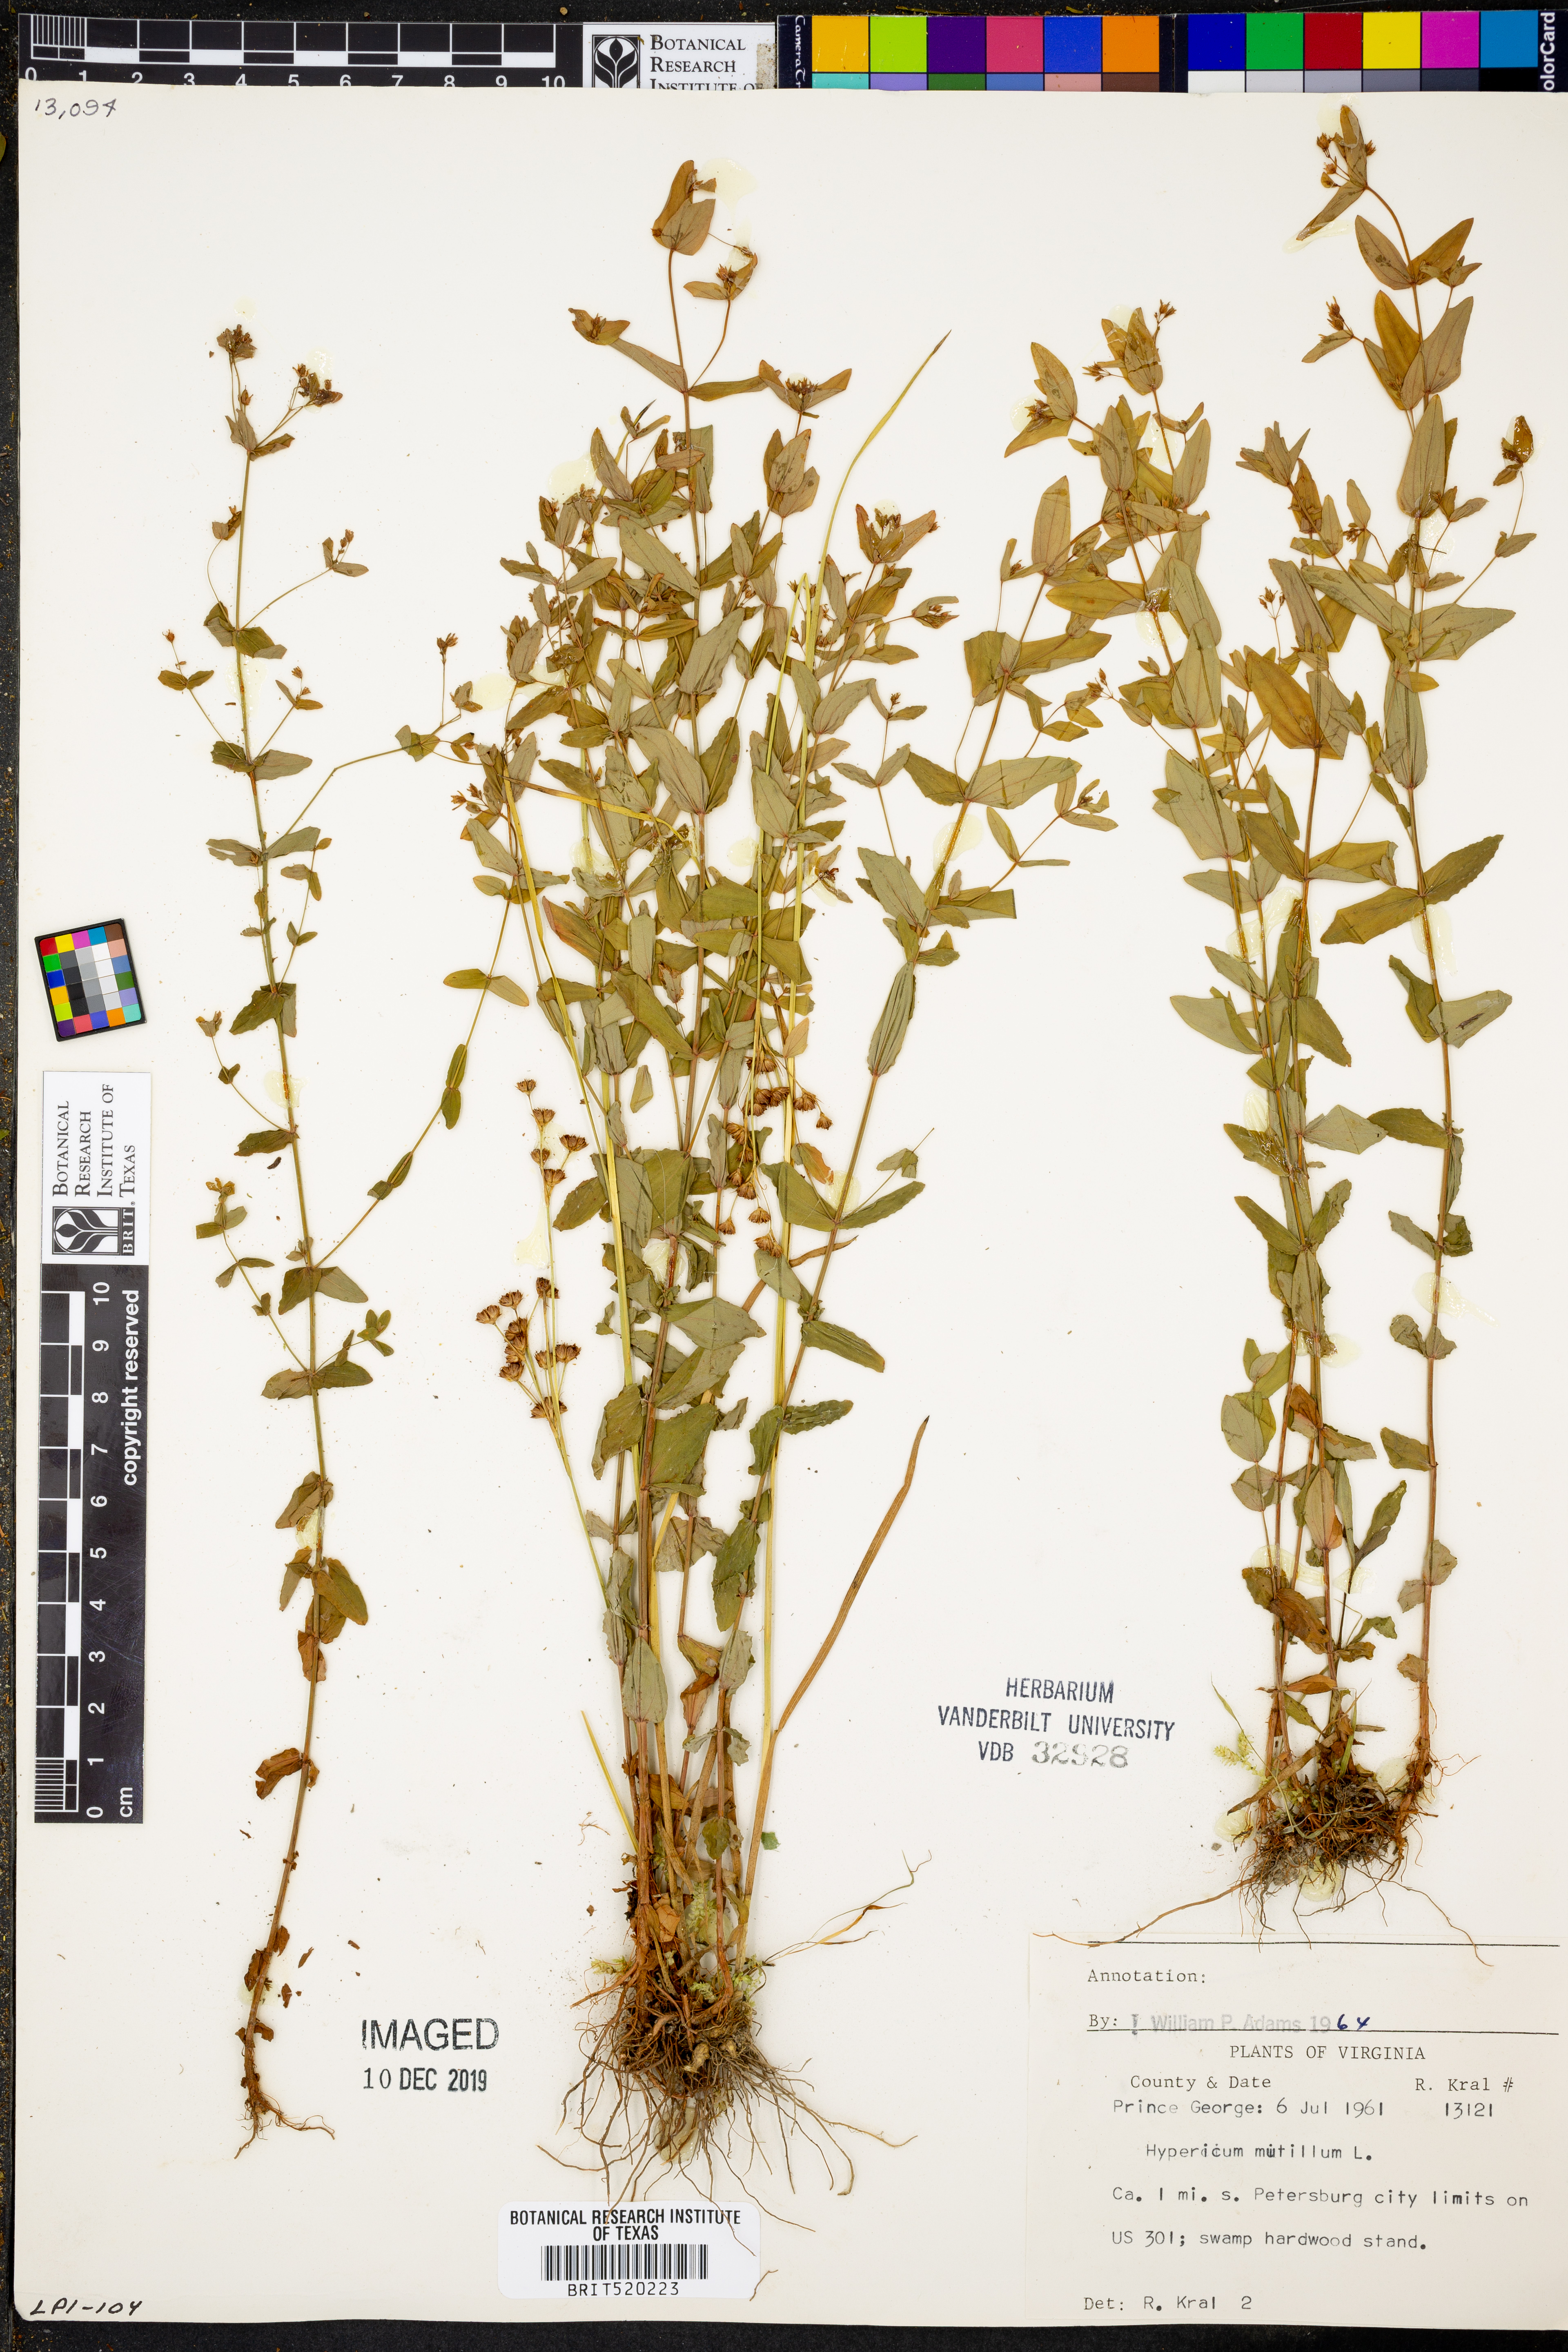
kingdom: Plantae
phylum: Tracheophyta
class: Magnoliopsida
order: Malpighiales
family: Hypericaceae
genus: Hypericum
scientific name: Hypericum mutilum
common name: Dwarf st. john's-wort
